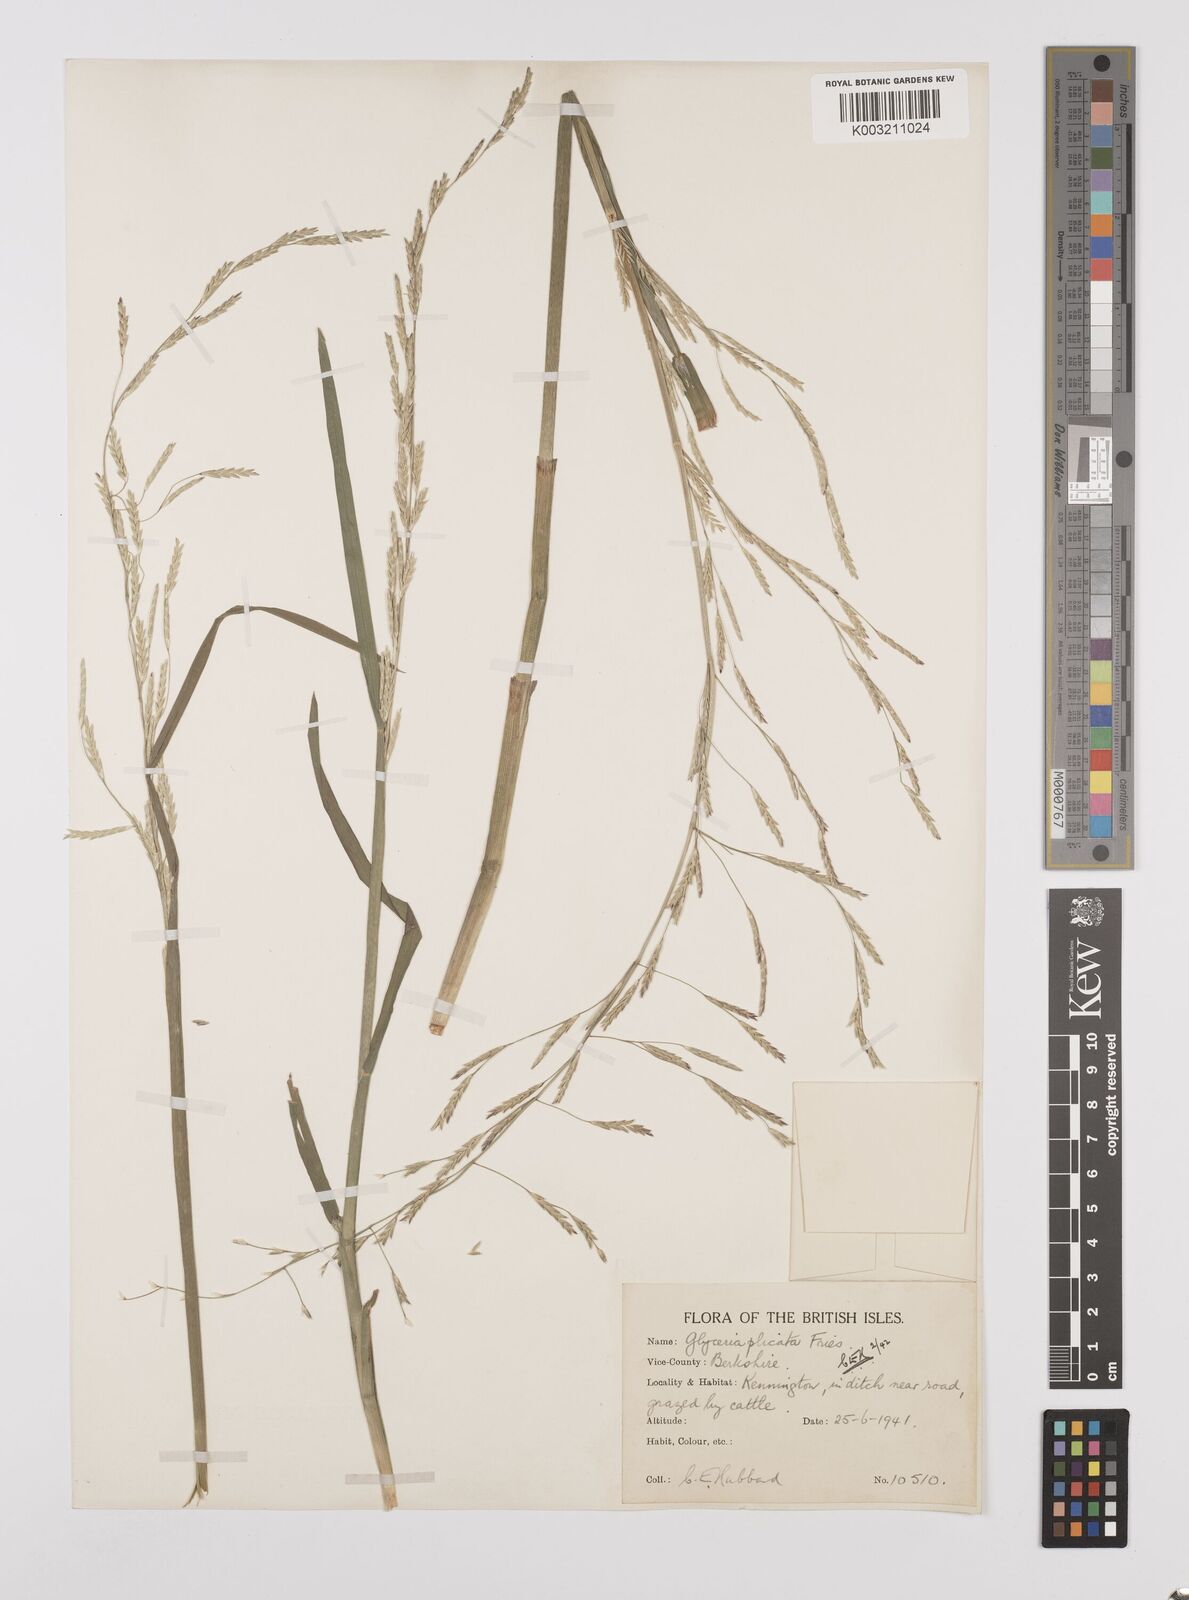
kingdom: Plantae
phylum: Tracheophyta
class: Liliopsida
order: Poales
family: Poaceae
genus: Glyceria
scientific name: Glyceria notata
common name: Plicate sweet-grass
